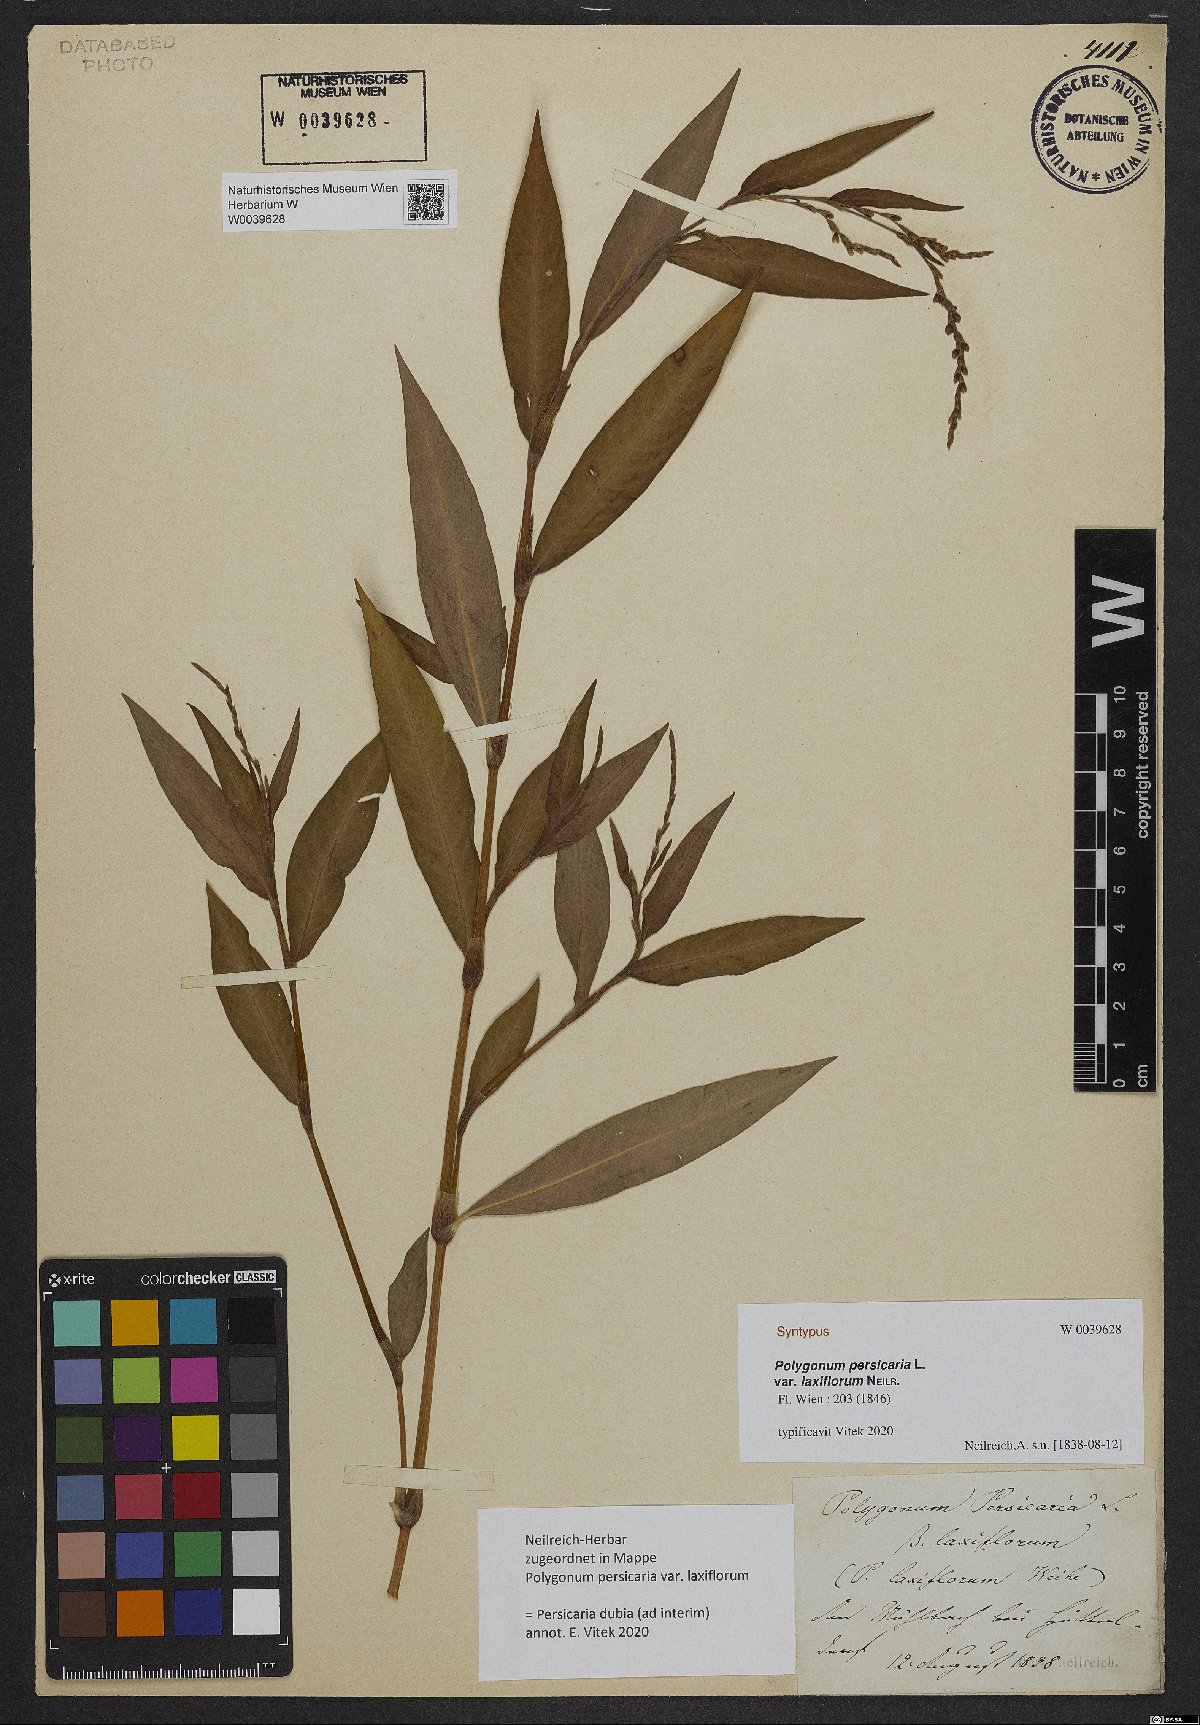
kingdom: Plantae
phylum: Tracheophyta
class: Magnoliopsida
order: Caryophyllales
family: Polygonaceae
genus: Persicaria
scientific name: Persicaria maculosa
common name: Redshank
